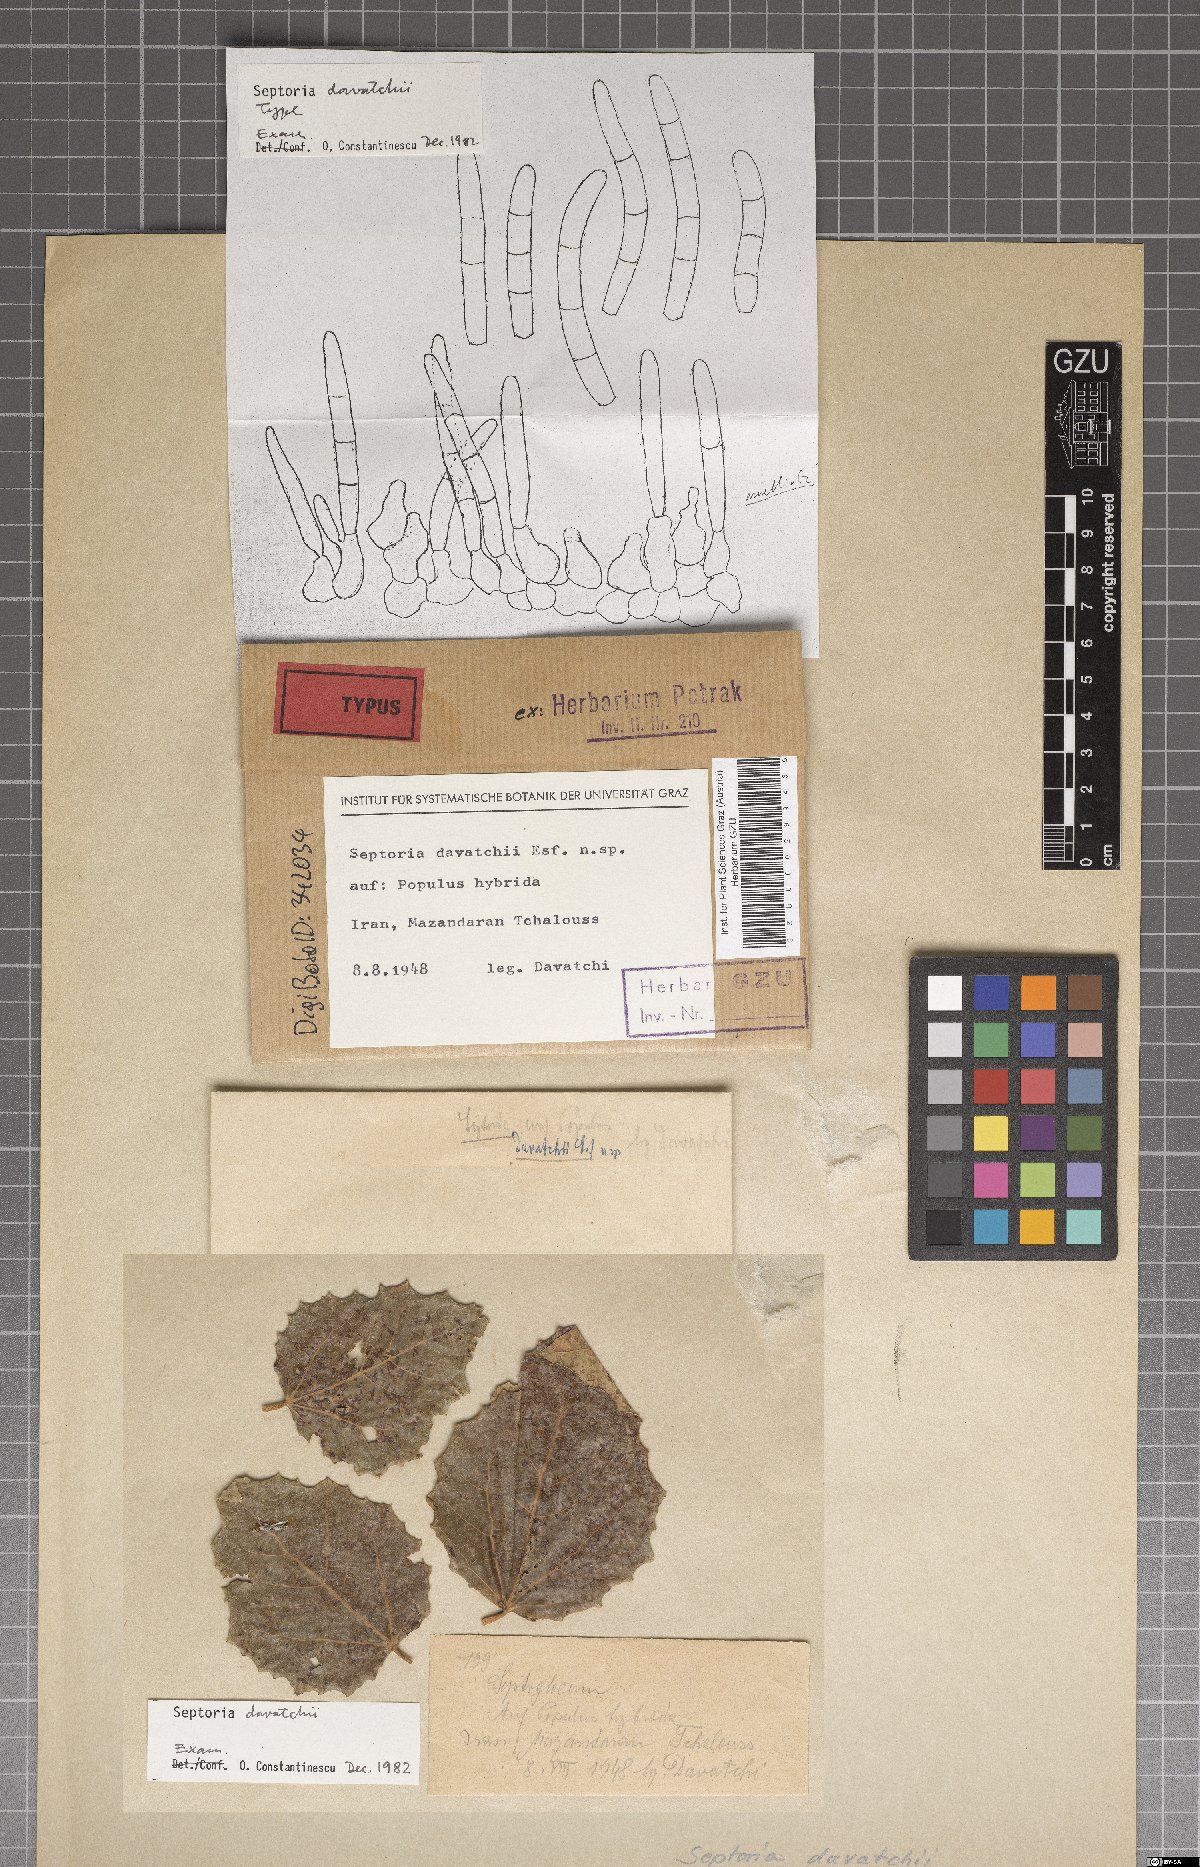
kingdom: Fungi
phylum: Ascomycota
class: Dothideomycetes
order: Mycosphaerellales
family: Mycosphaerellaceae
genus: Septoria
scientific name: Septoria davatchii
